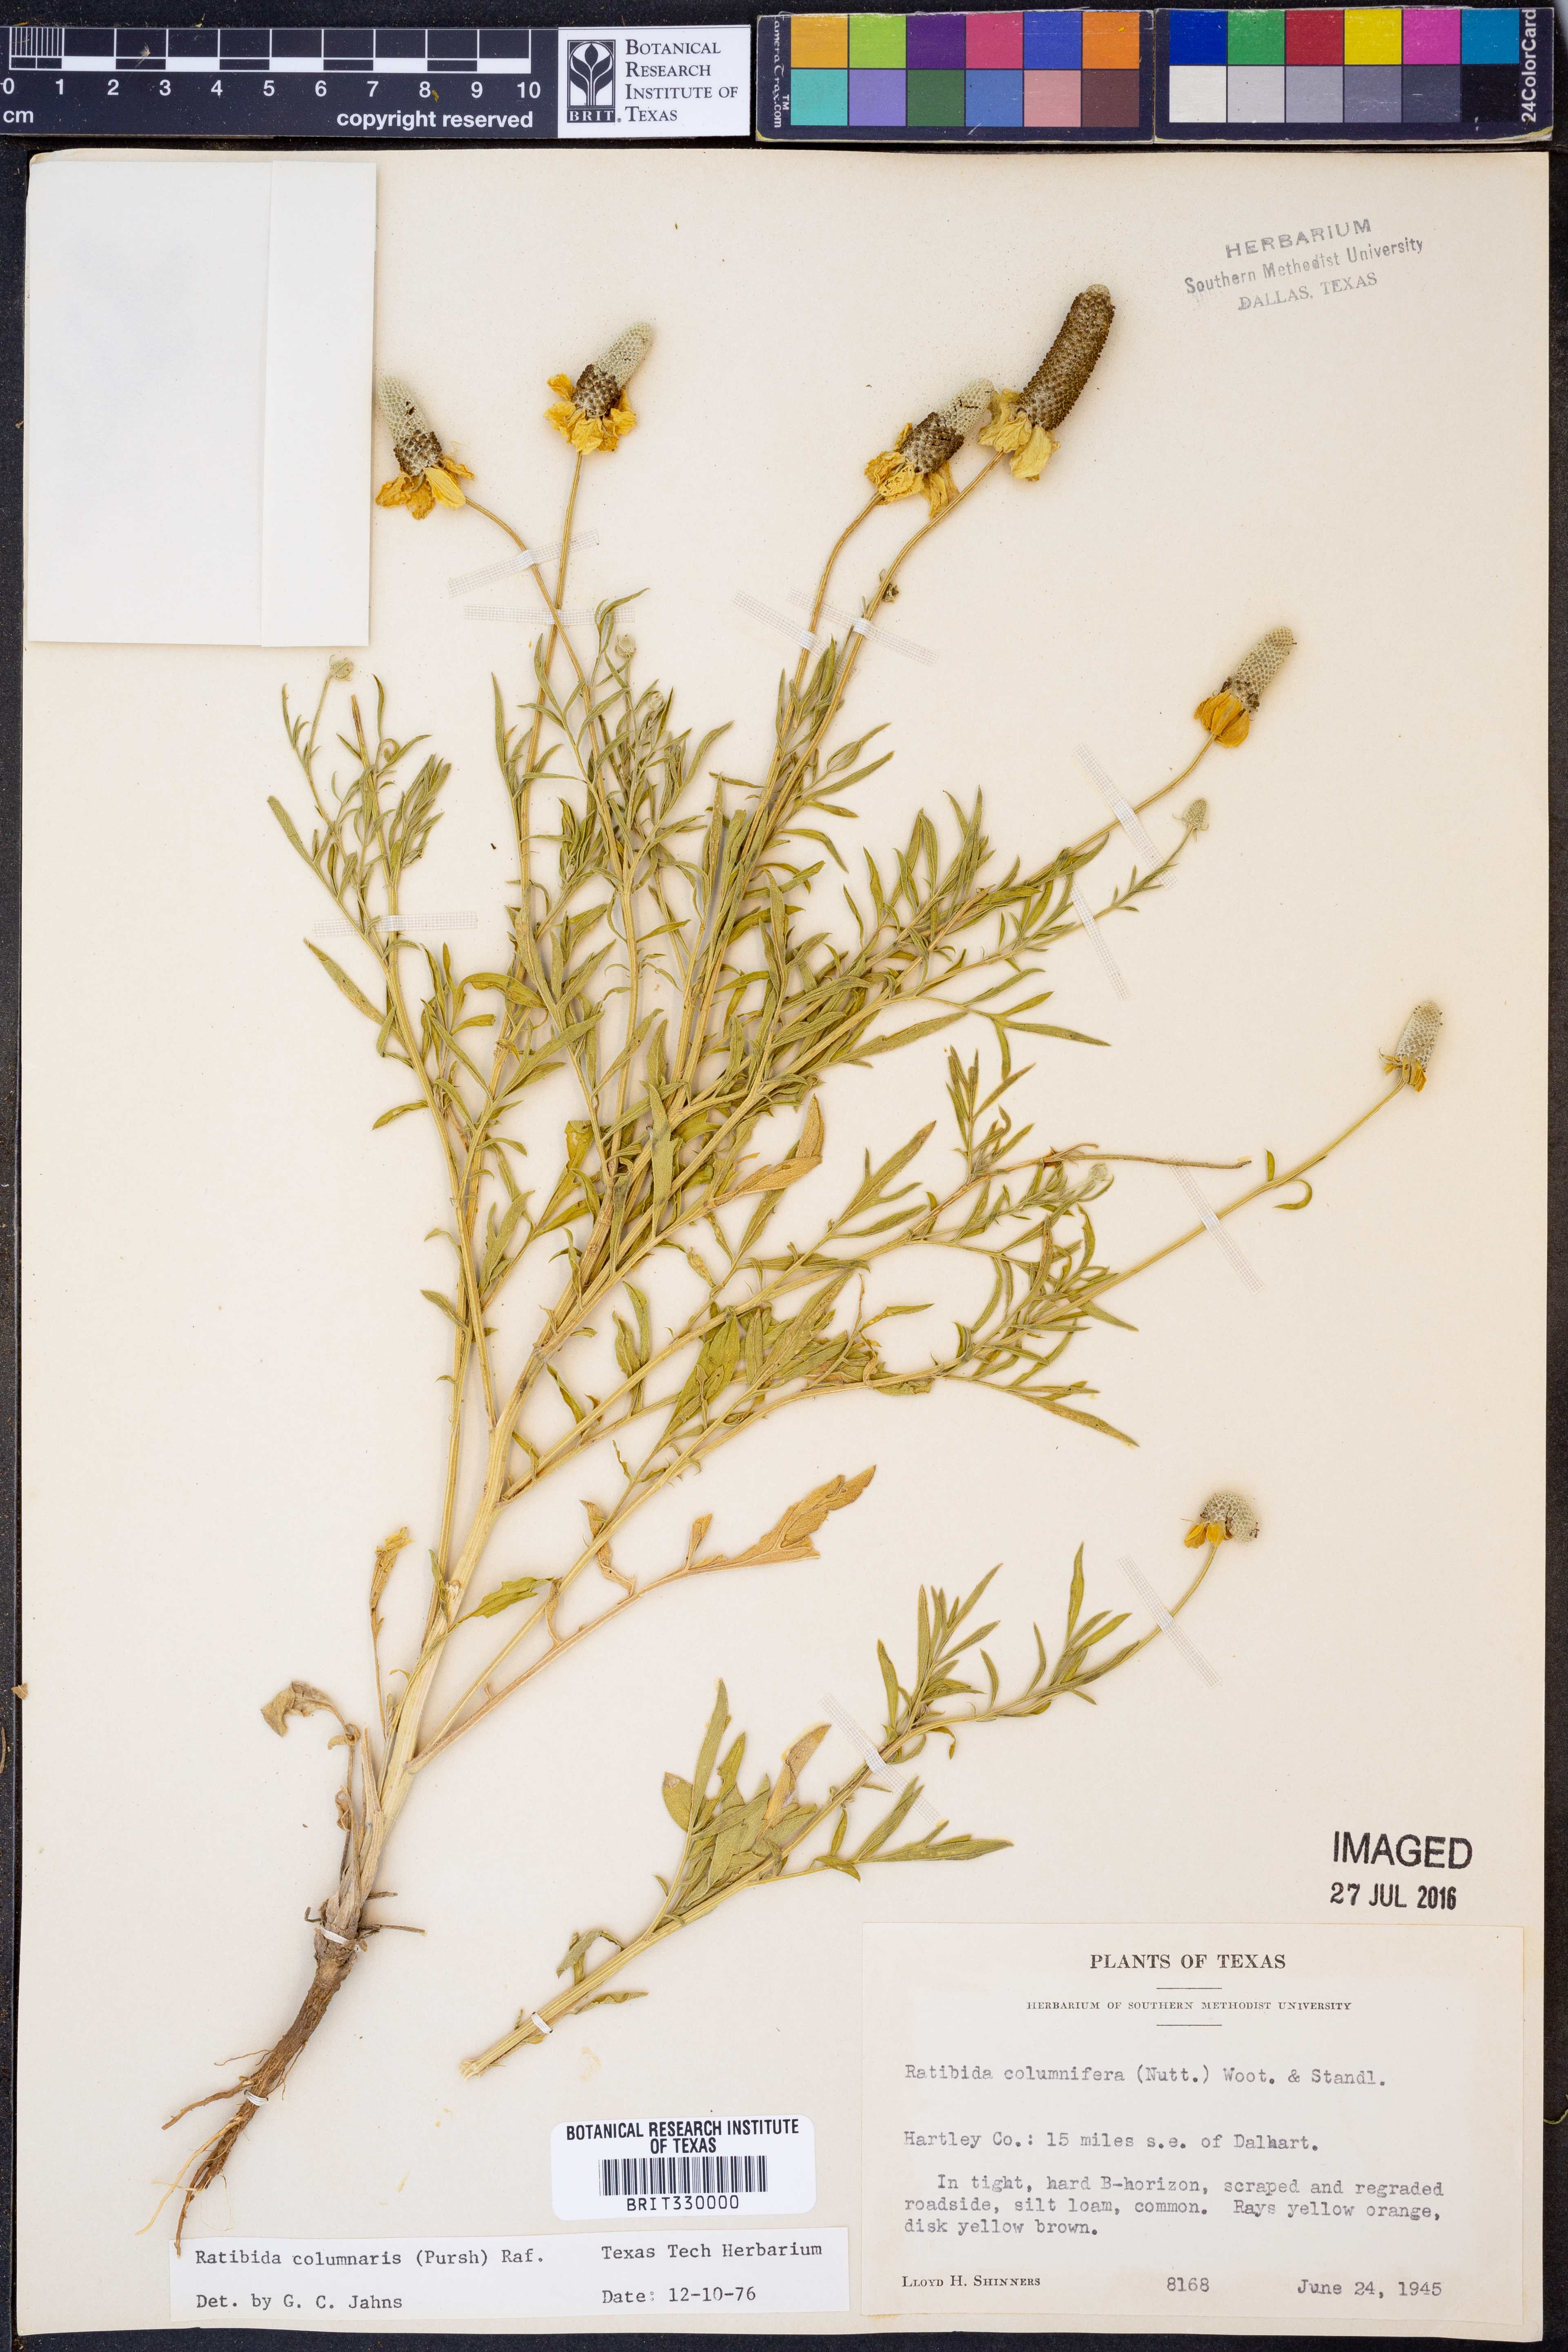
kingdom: Plantae
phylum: Tracheophyta
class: Magnoliopsida
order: Asterales
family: Asteraceae
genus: Ratibida
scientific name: Ratibida columnifera
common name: Prairie coneflower
